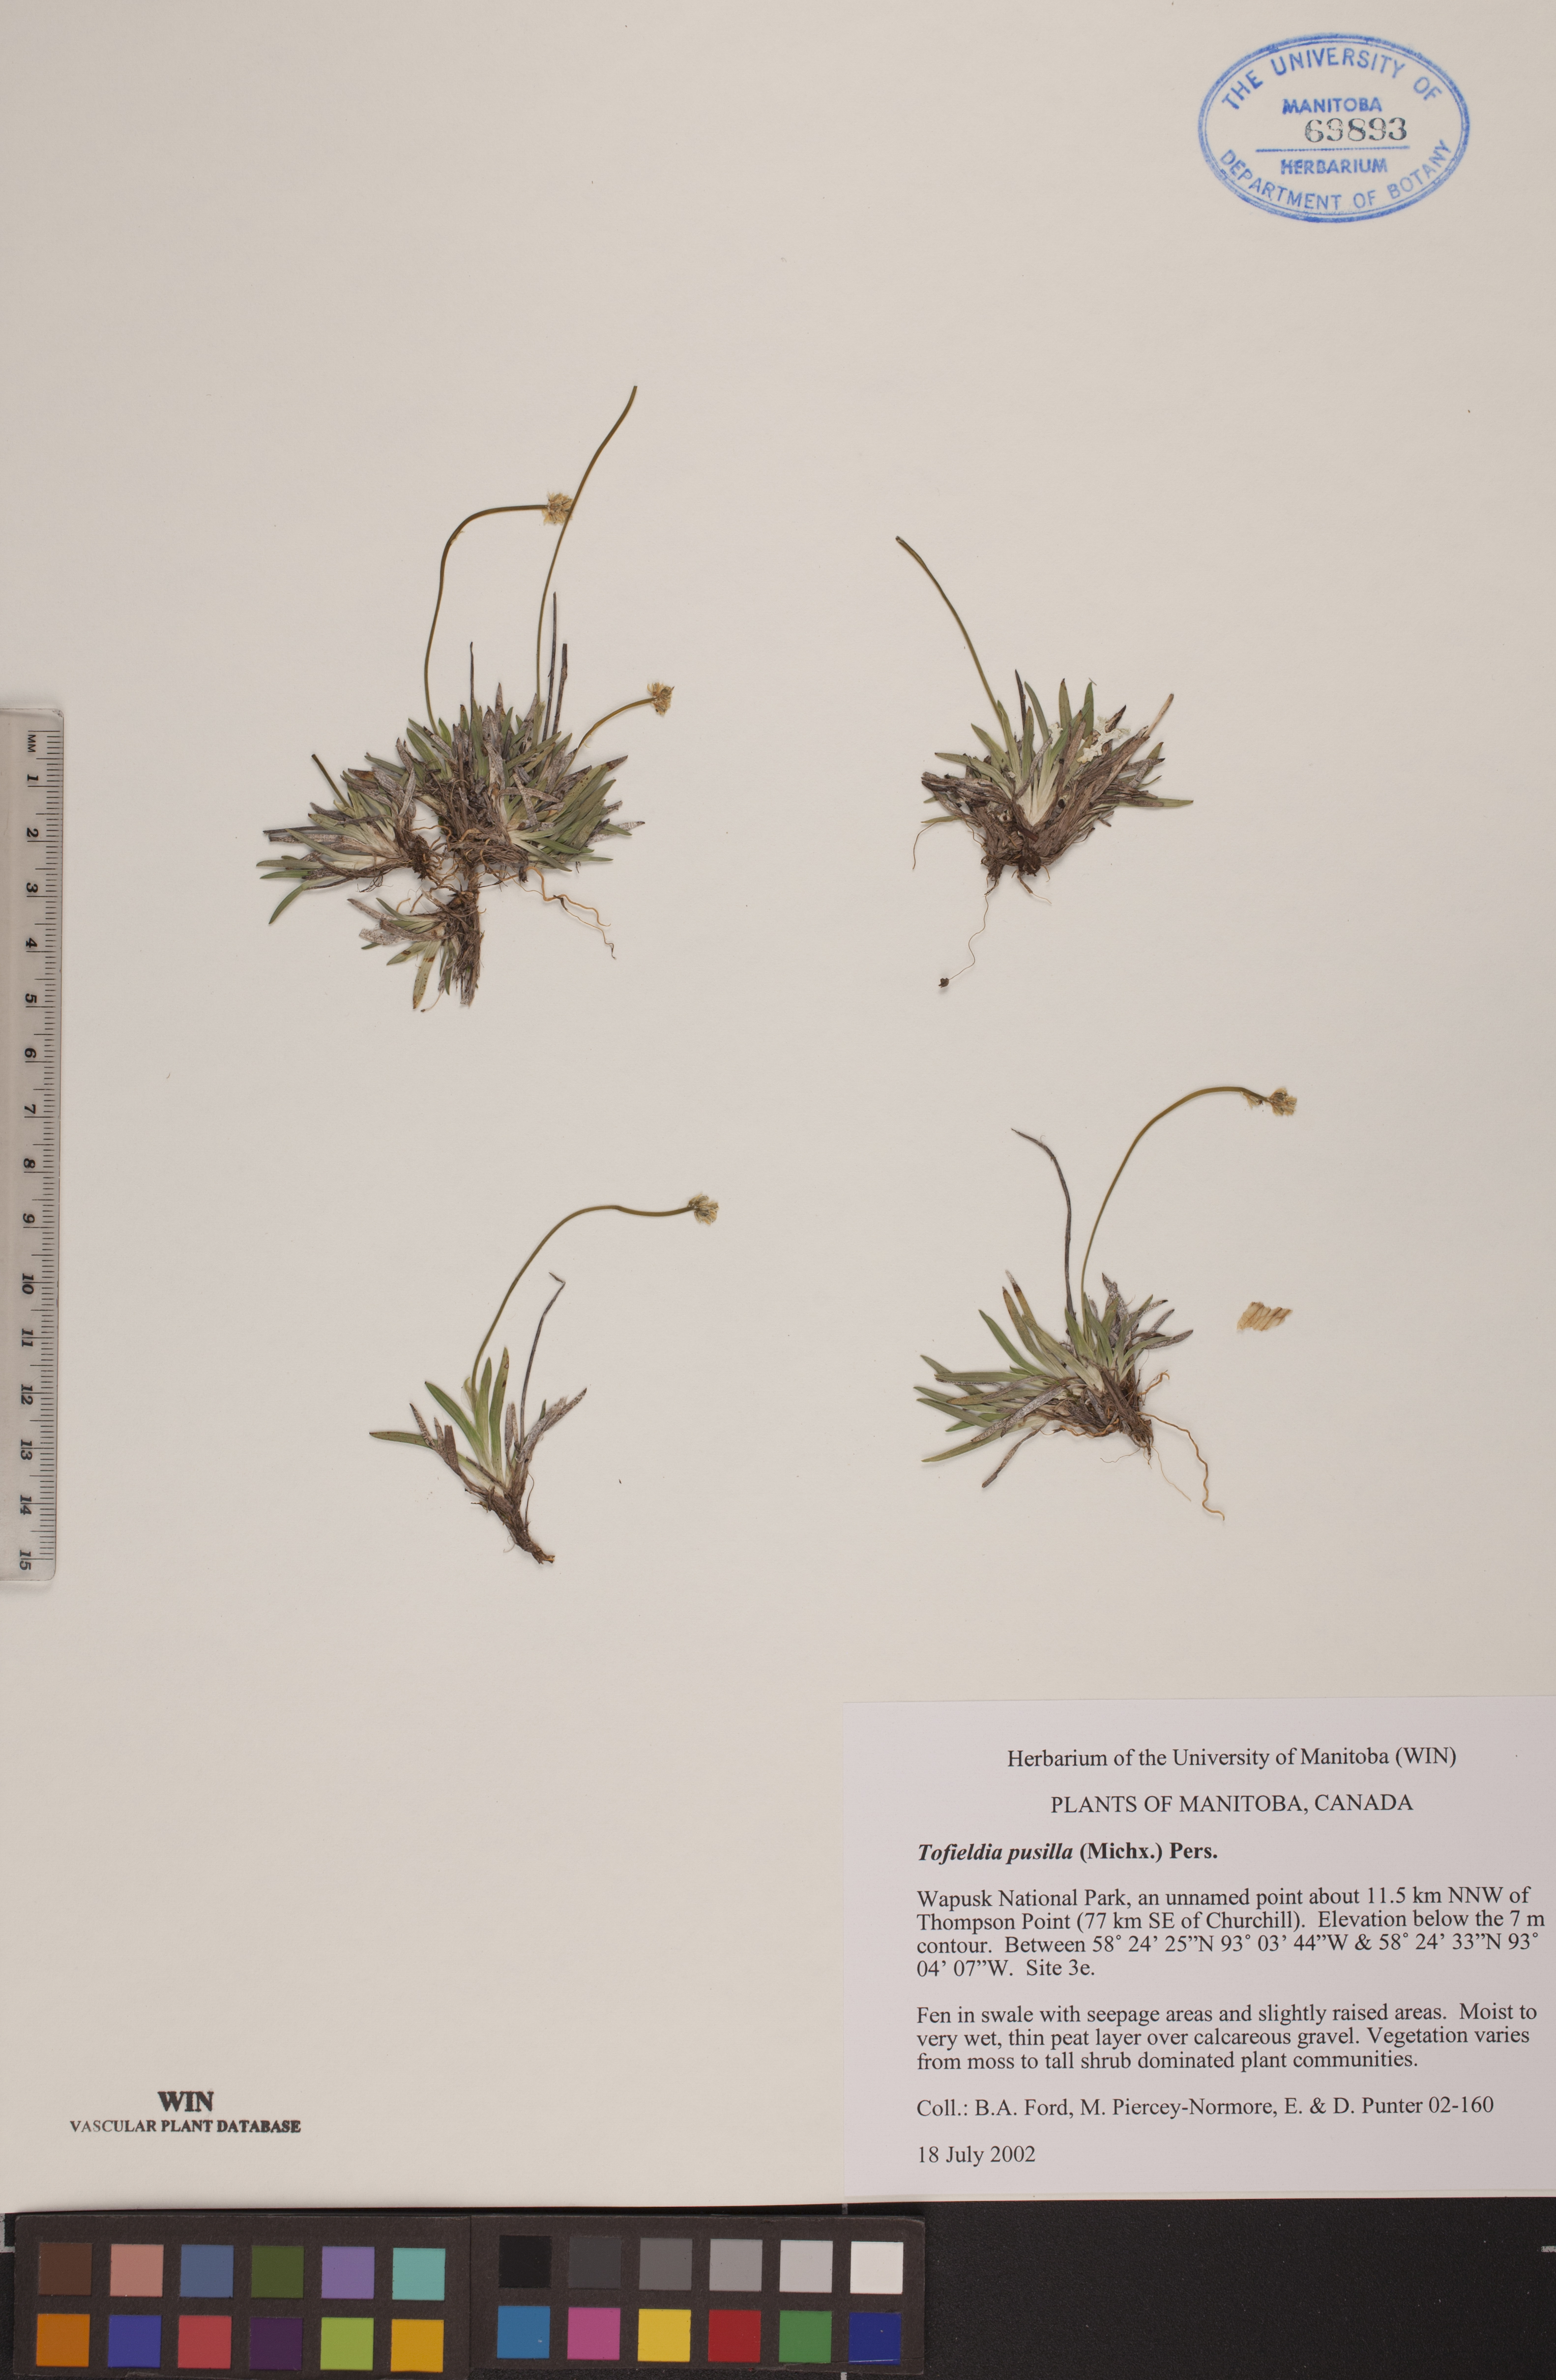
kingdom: Plantae
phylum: Tracheophyta
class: Liliopsida
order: Alismatales
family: Tofieldiaceae
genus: Tofieldia
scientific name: Tofieldia pusilla
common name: Scottish false asphodel
